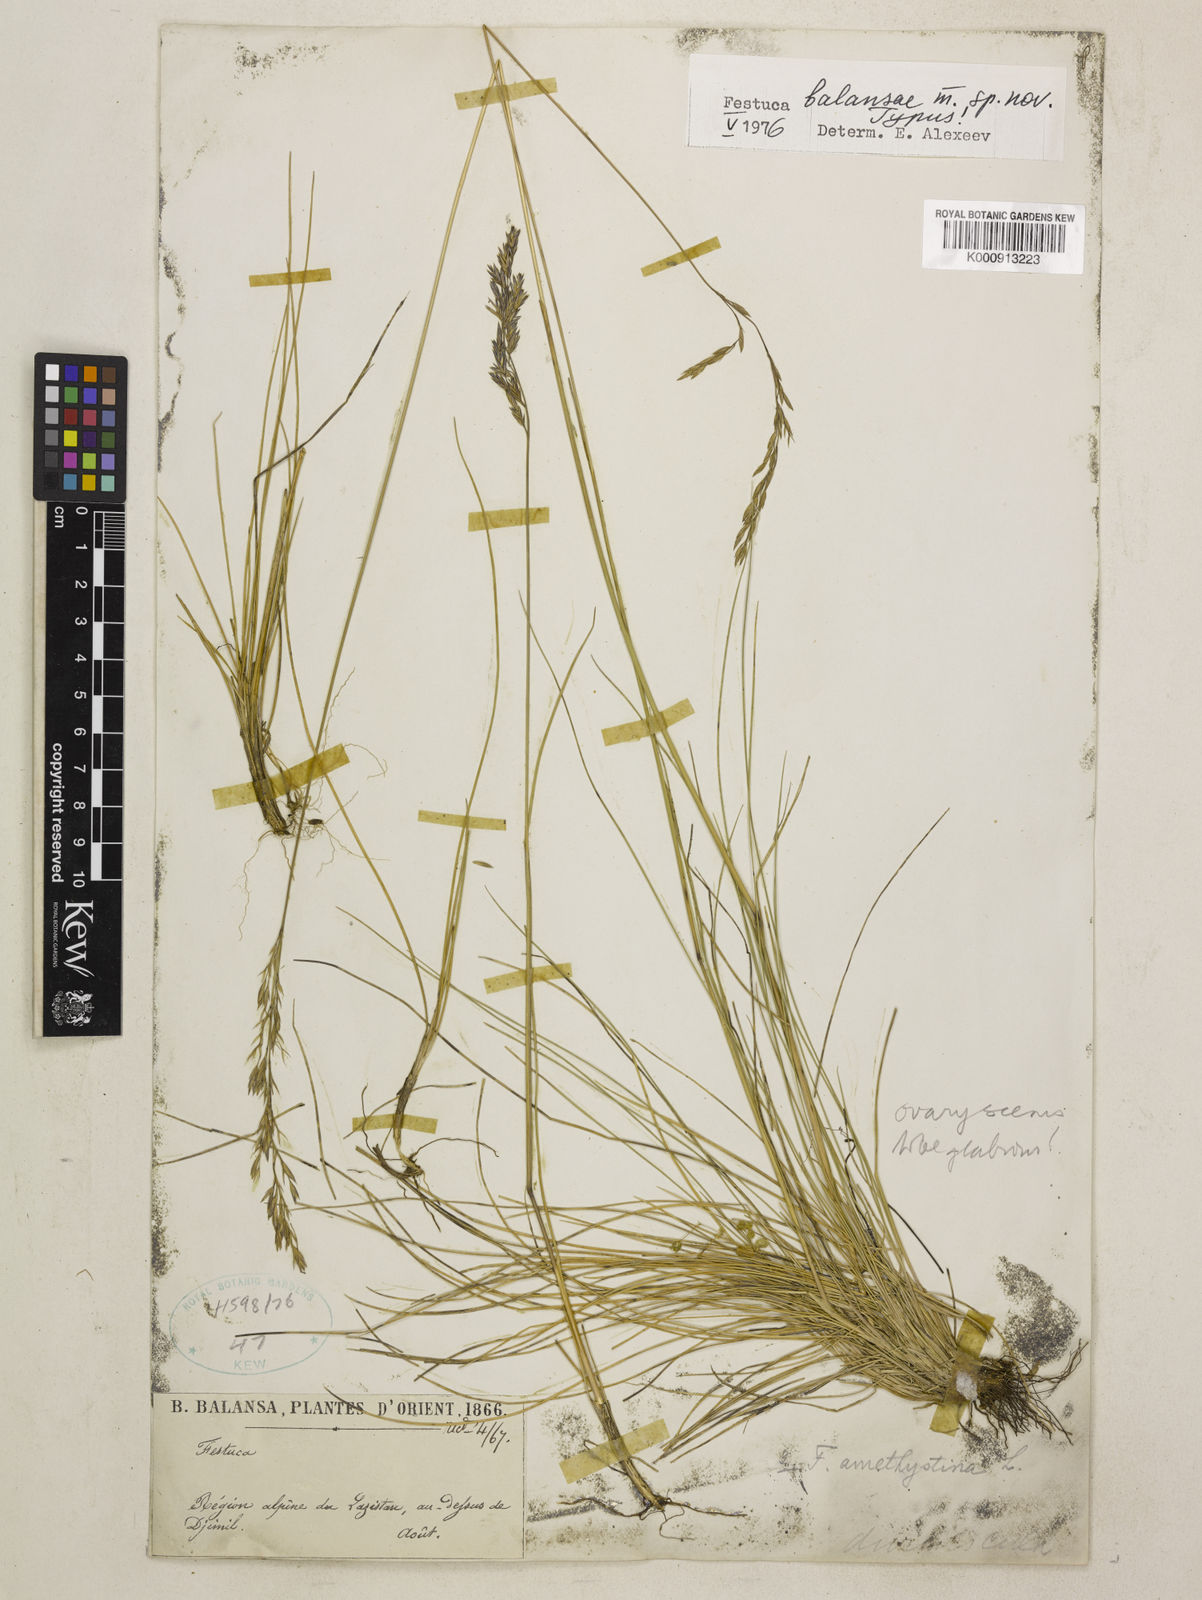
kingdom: Plantae
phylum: Tracheophyta
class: Liliopsida
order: Poales
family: Poaceae
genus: Festuca
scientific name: Festuca amethystina
